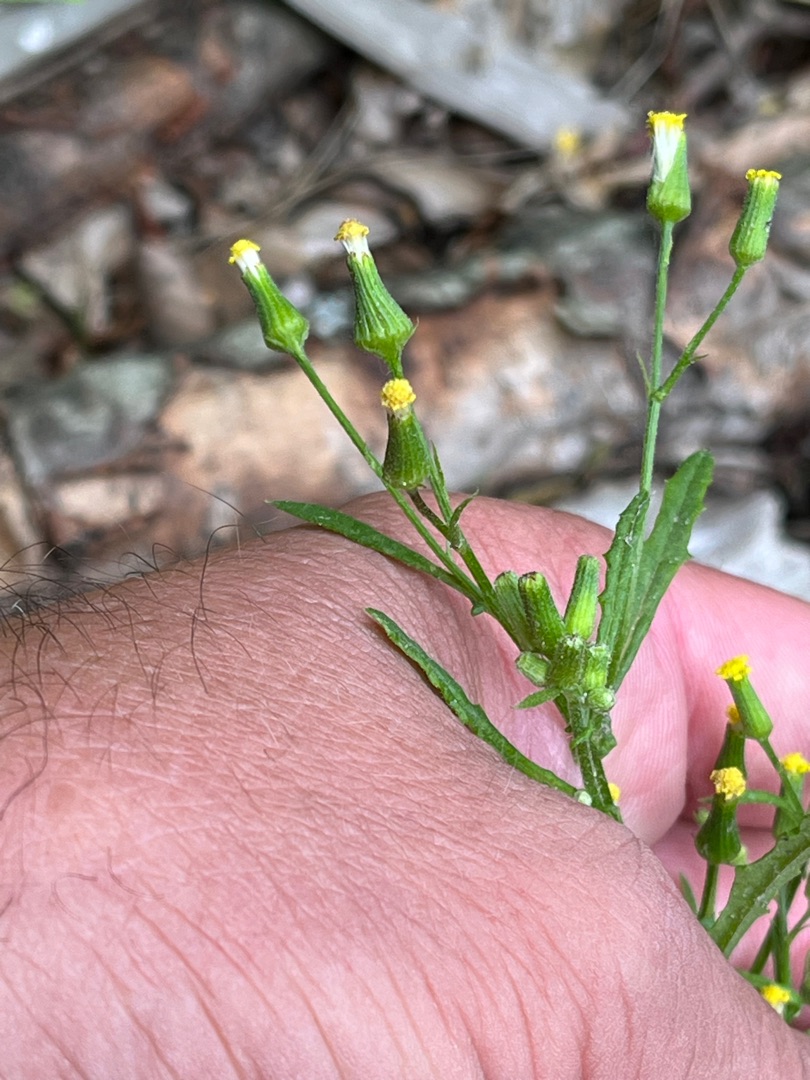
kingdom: Plantae
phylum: Tracheophyta
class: Magnoliopsida
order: Asterales
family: Asteraceae
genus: Senecio
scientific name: Senecio sylvaticus
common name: Skov-brandbæger
